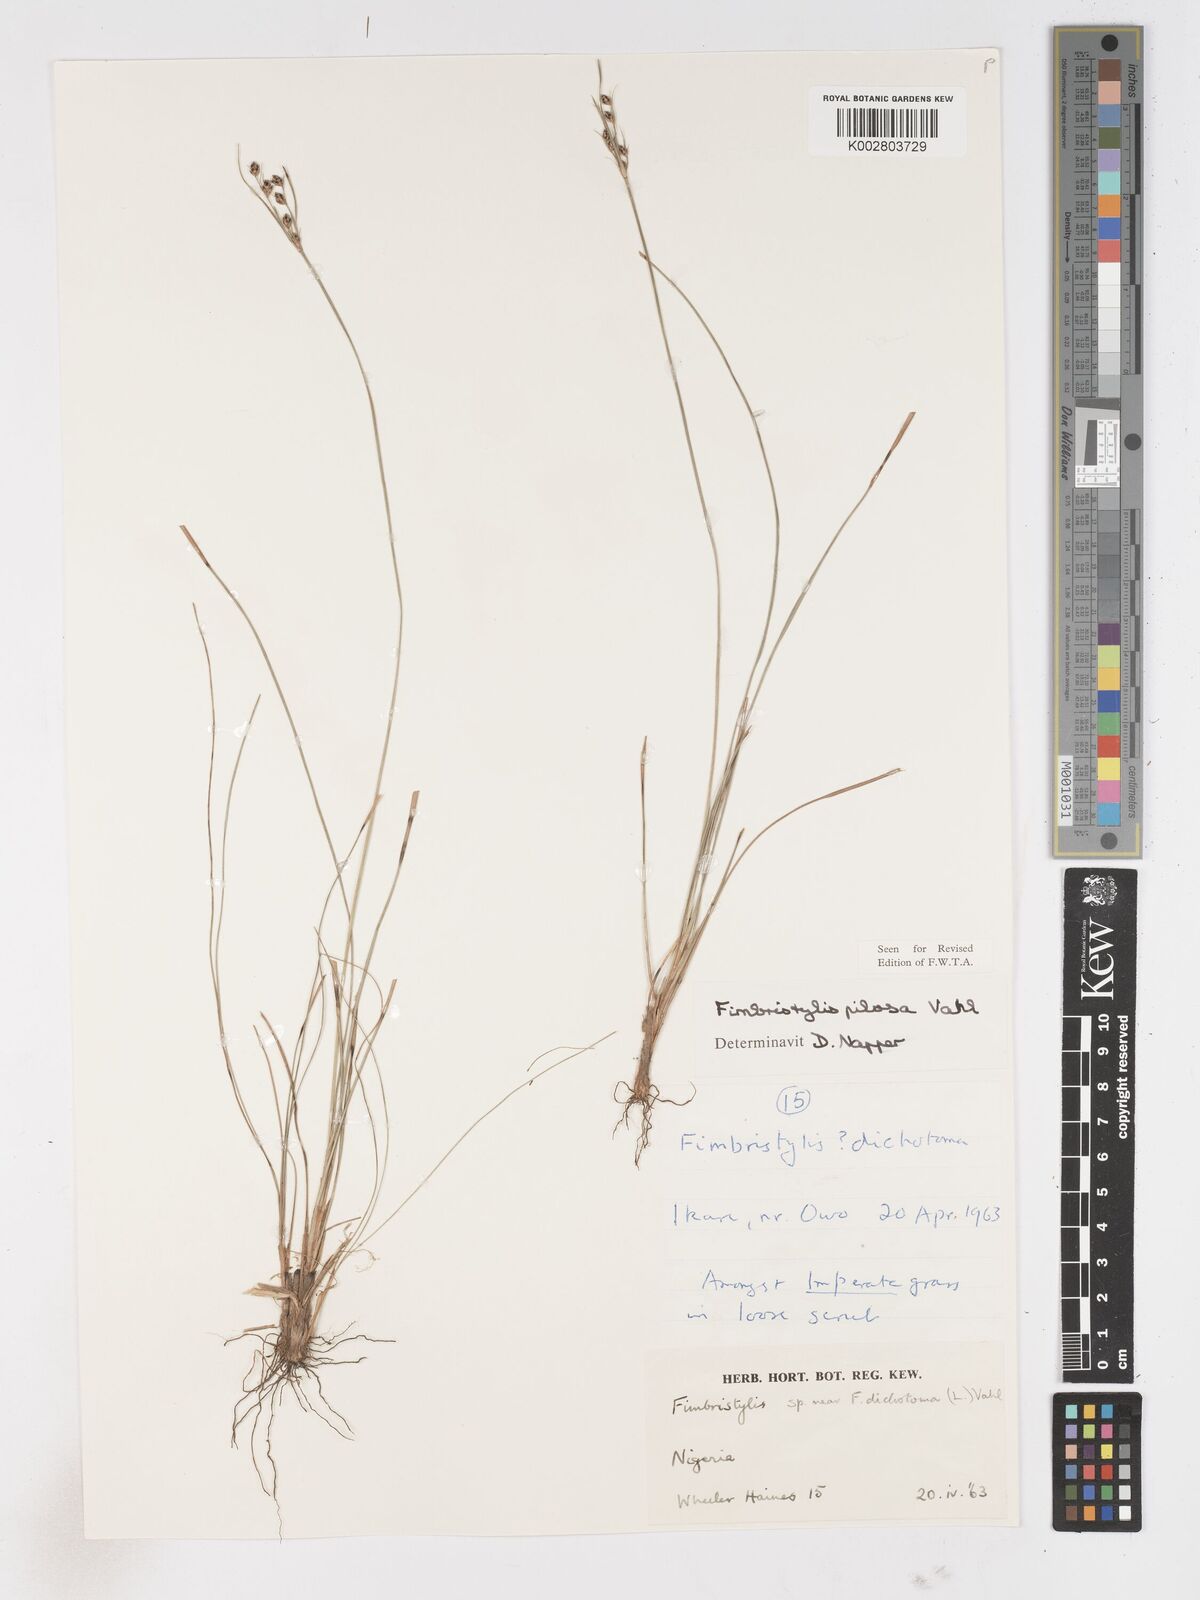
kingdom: Plantae
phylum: Tracheophyta
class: Liliopsida
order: Poales
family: Cyperaceae
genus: Fimbristylis
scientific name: Fimbristylis pilosa
